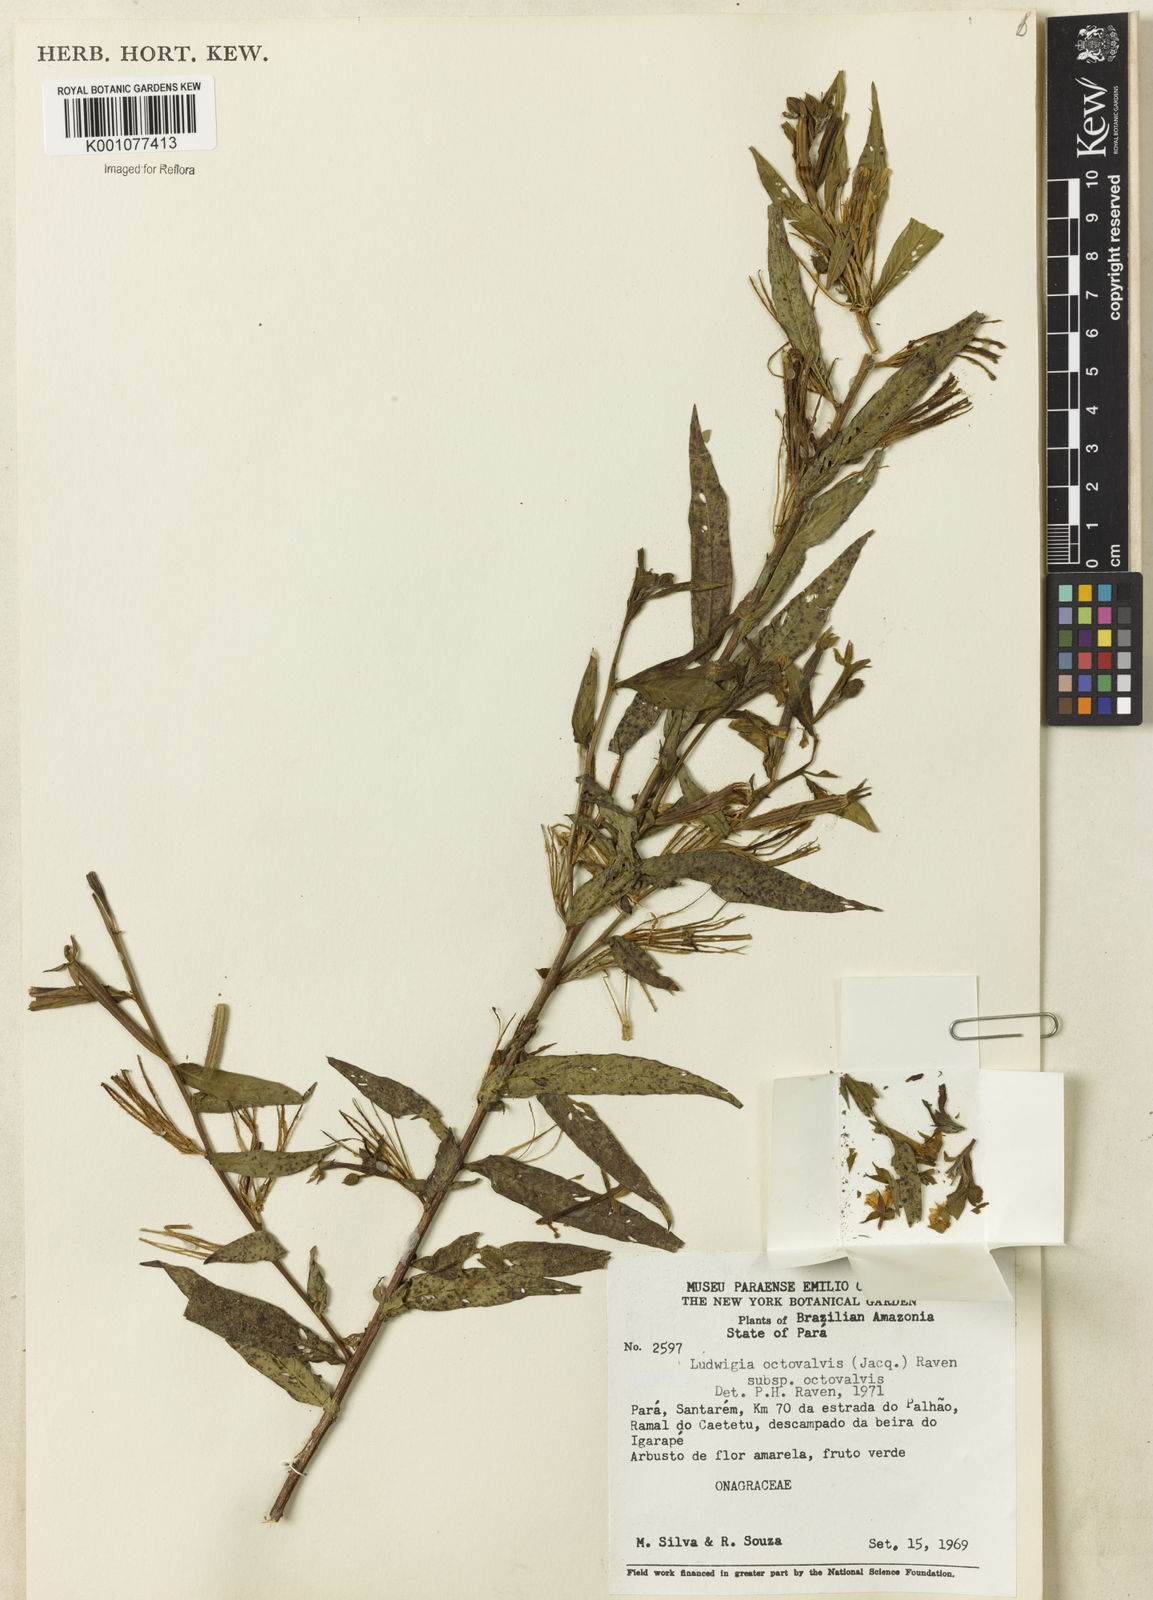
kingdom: Plantae
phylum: Tracheophyta
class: Magnoliopsida
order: Myrtales
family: Onagraceae
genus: Ludwigia
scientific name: Ludwigia octovalvis
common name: Water-primrose
